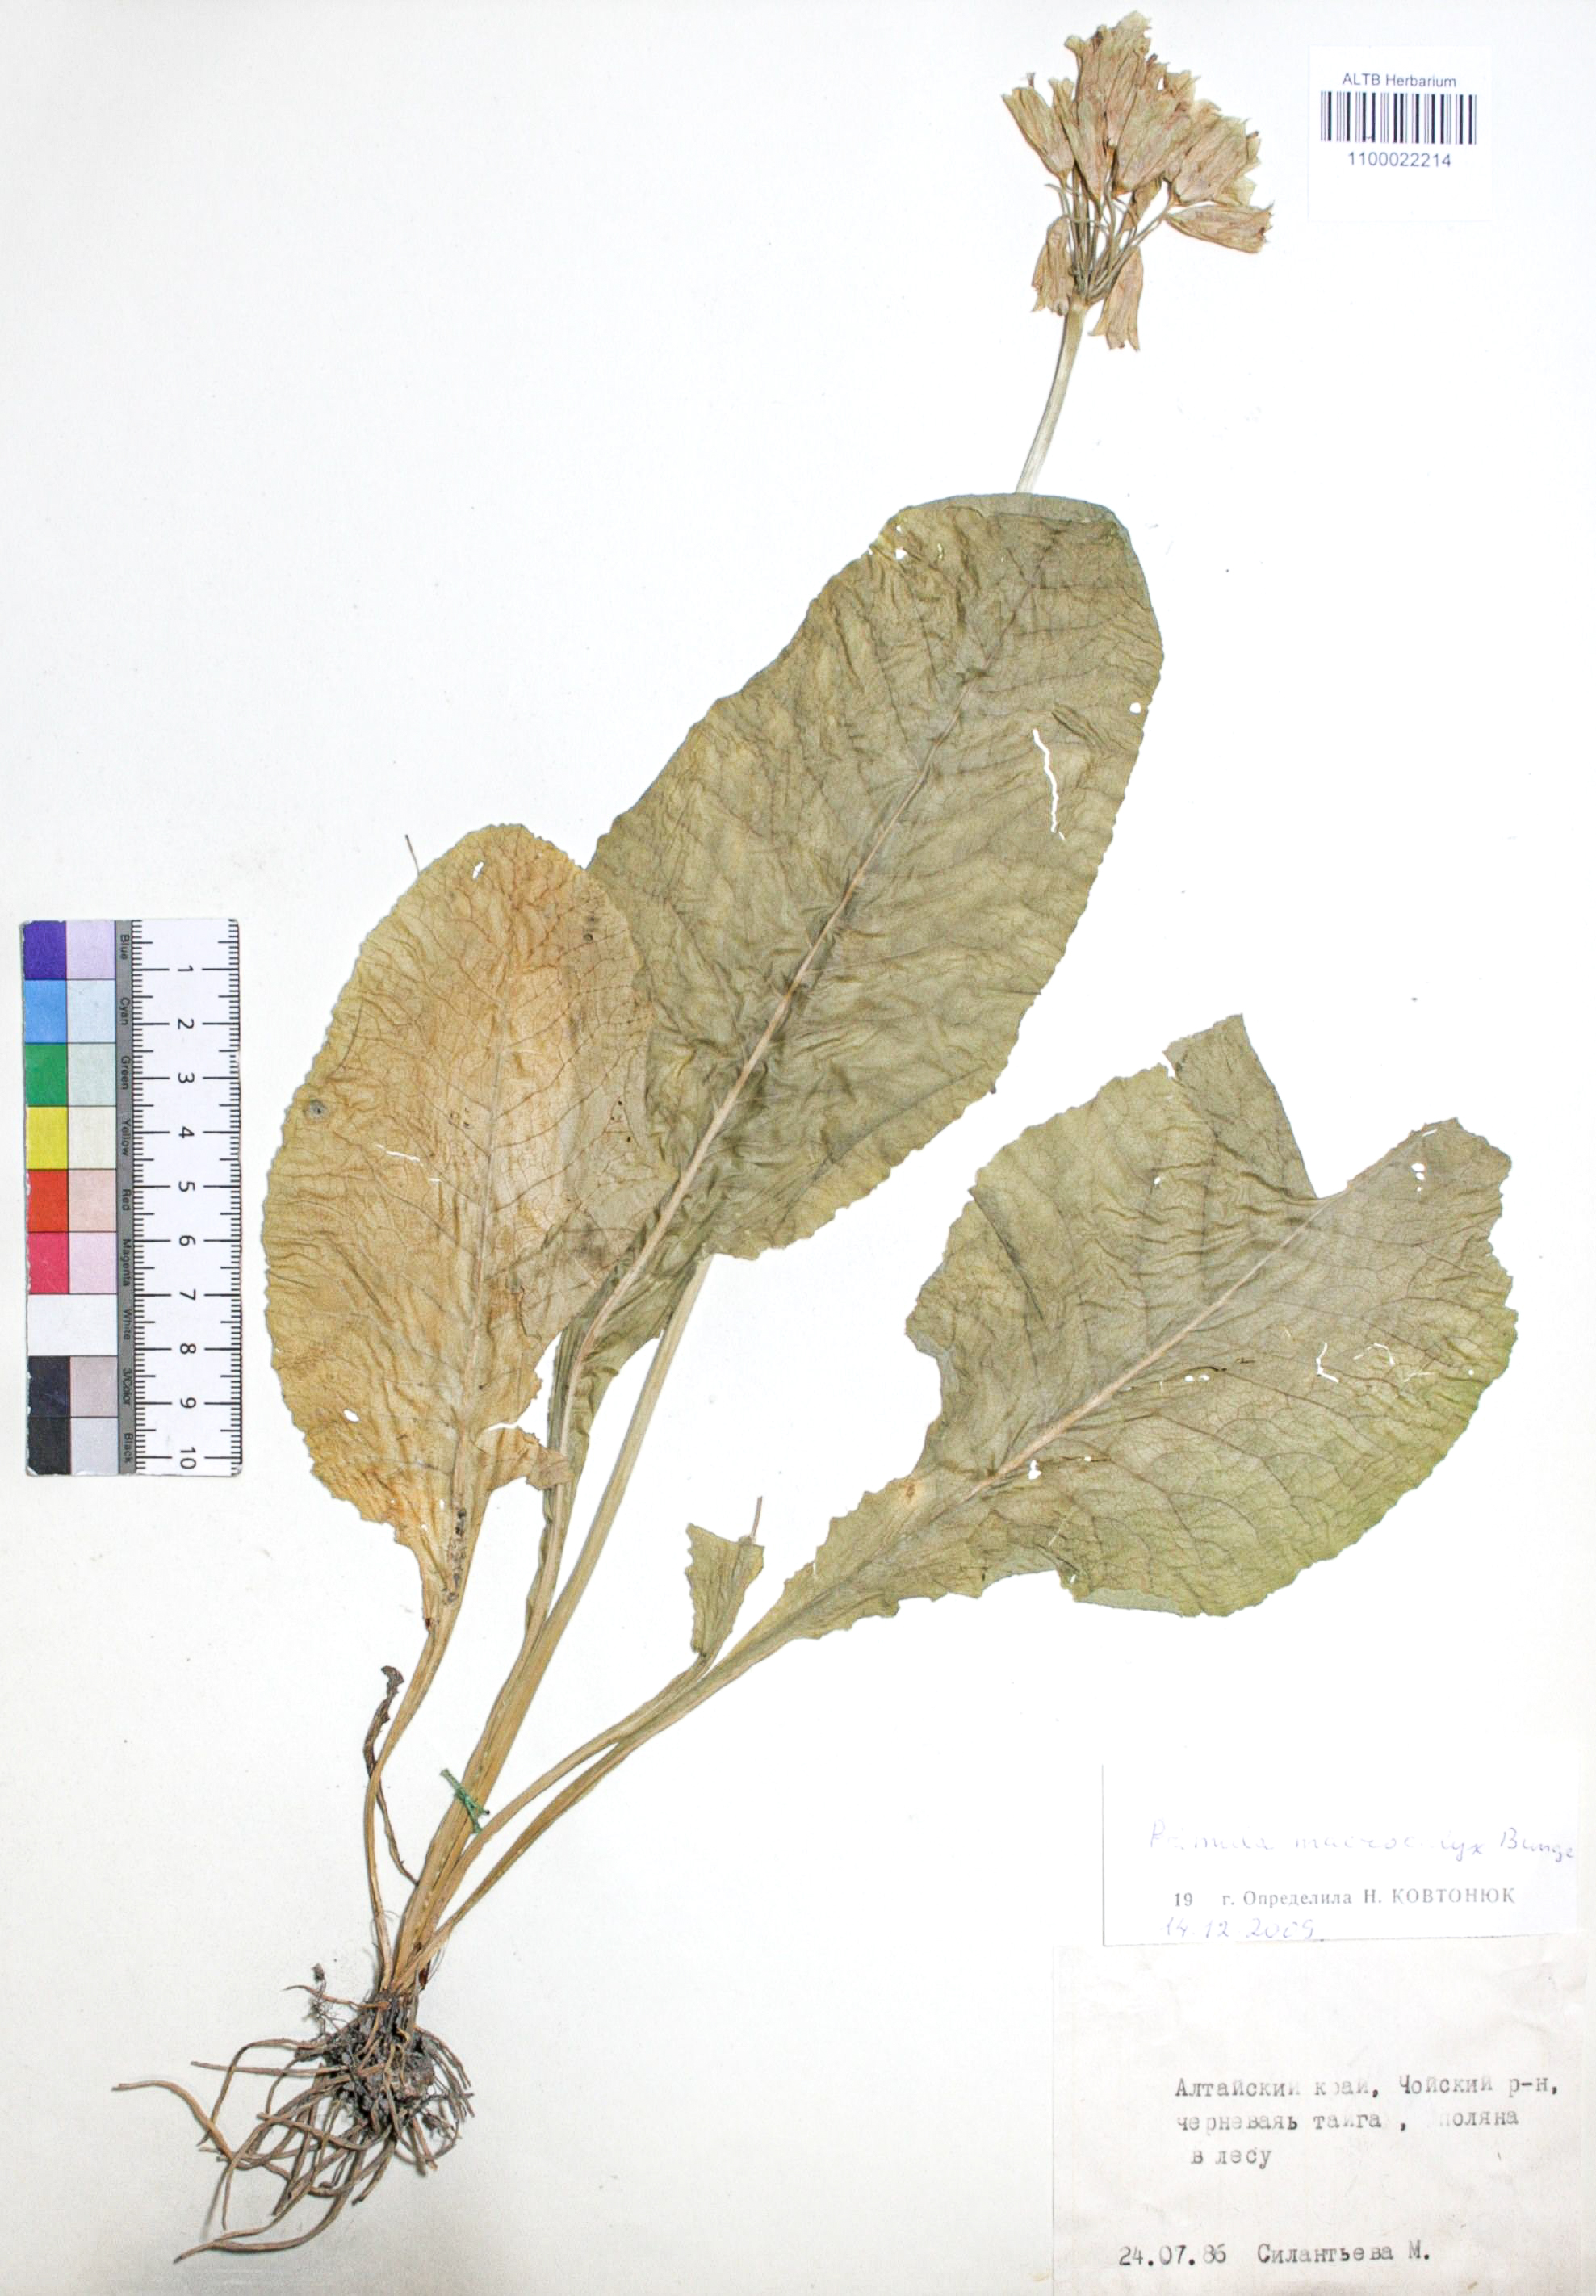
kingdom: Plantae
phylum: Tracheophyta
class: Magnoliopsida
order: Ericales
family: Primulaceae
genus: Primula
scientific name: Primula veris
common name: Cowslip
